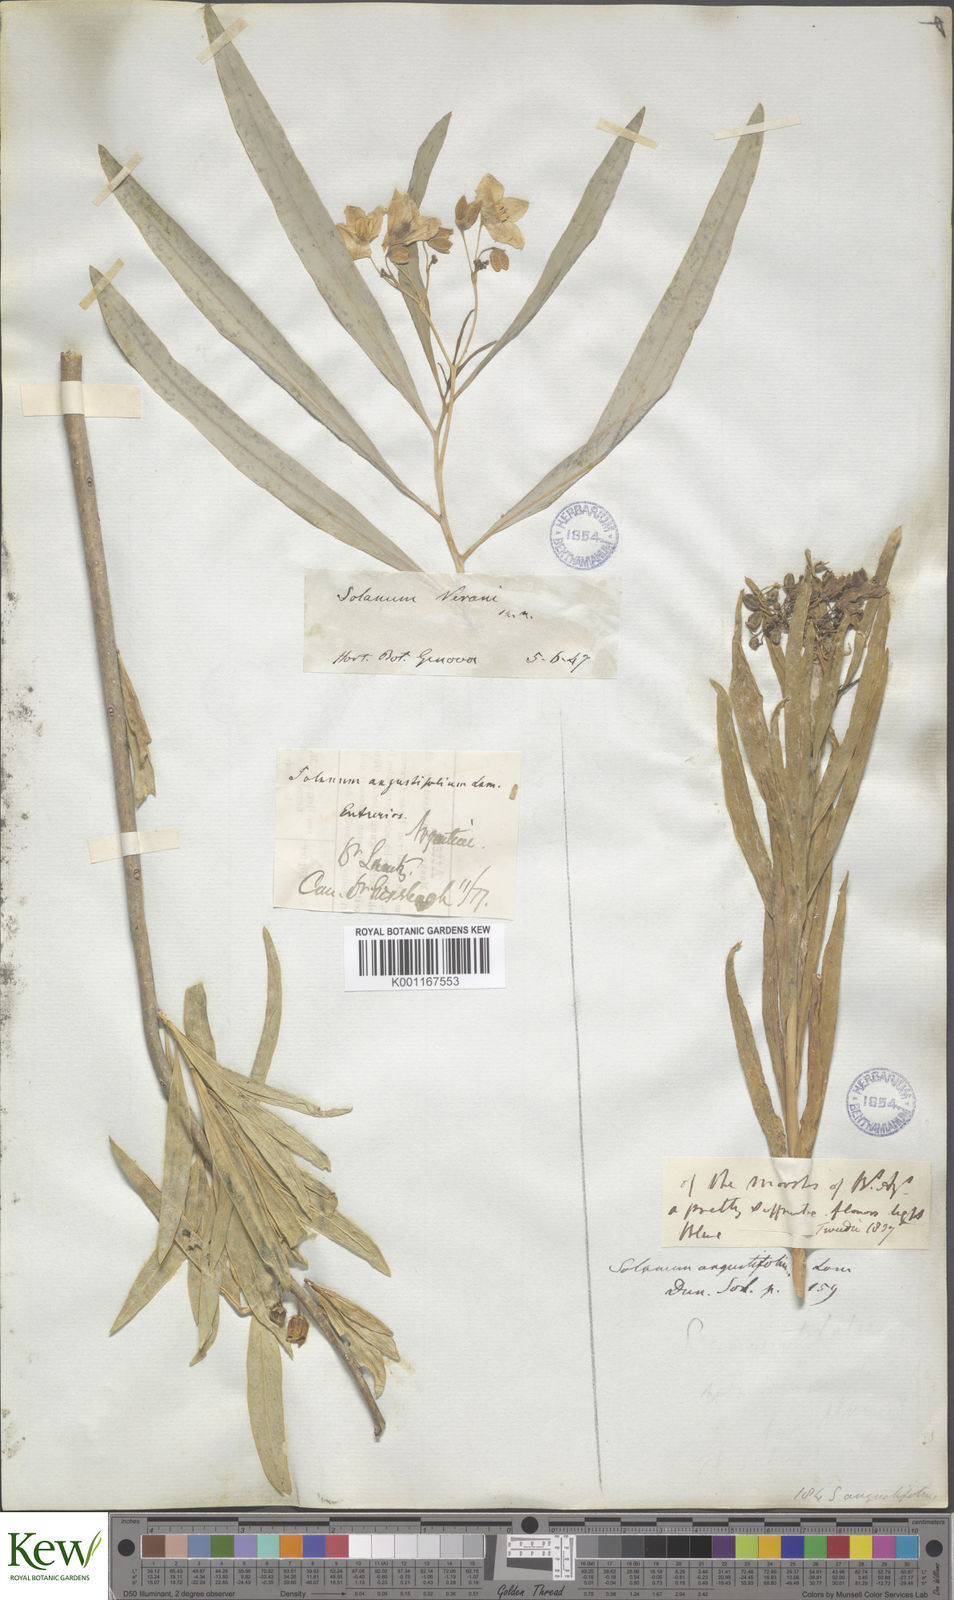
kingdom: Plantae
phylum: Tracheophyta
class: Magnoliopsida
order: Solanales
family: Solanaceae
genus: Solanum
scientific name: Solanum glaucophyllum
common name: Waxyleaf nightshade
